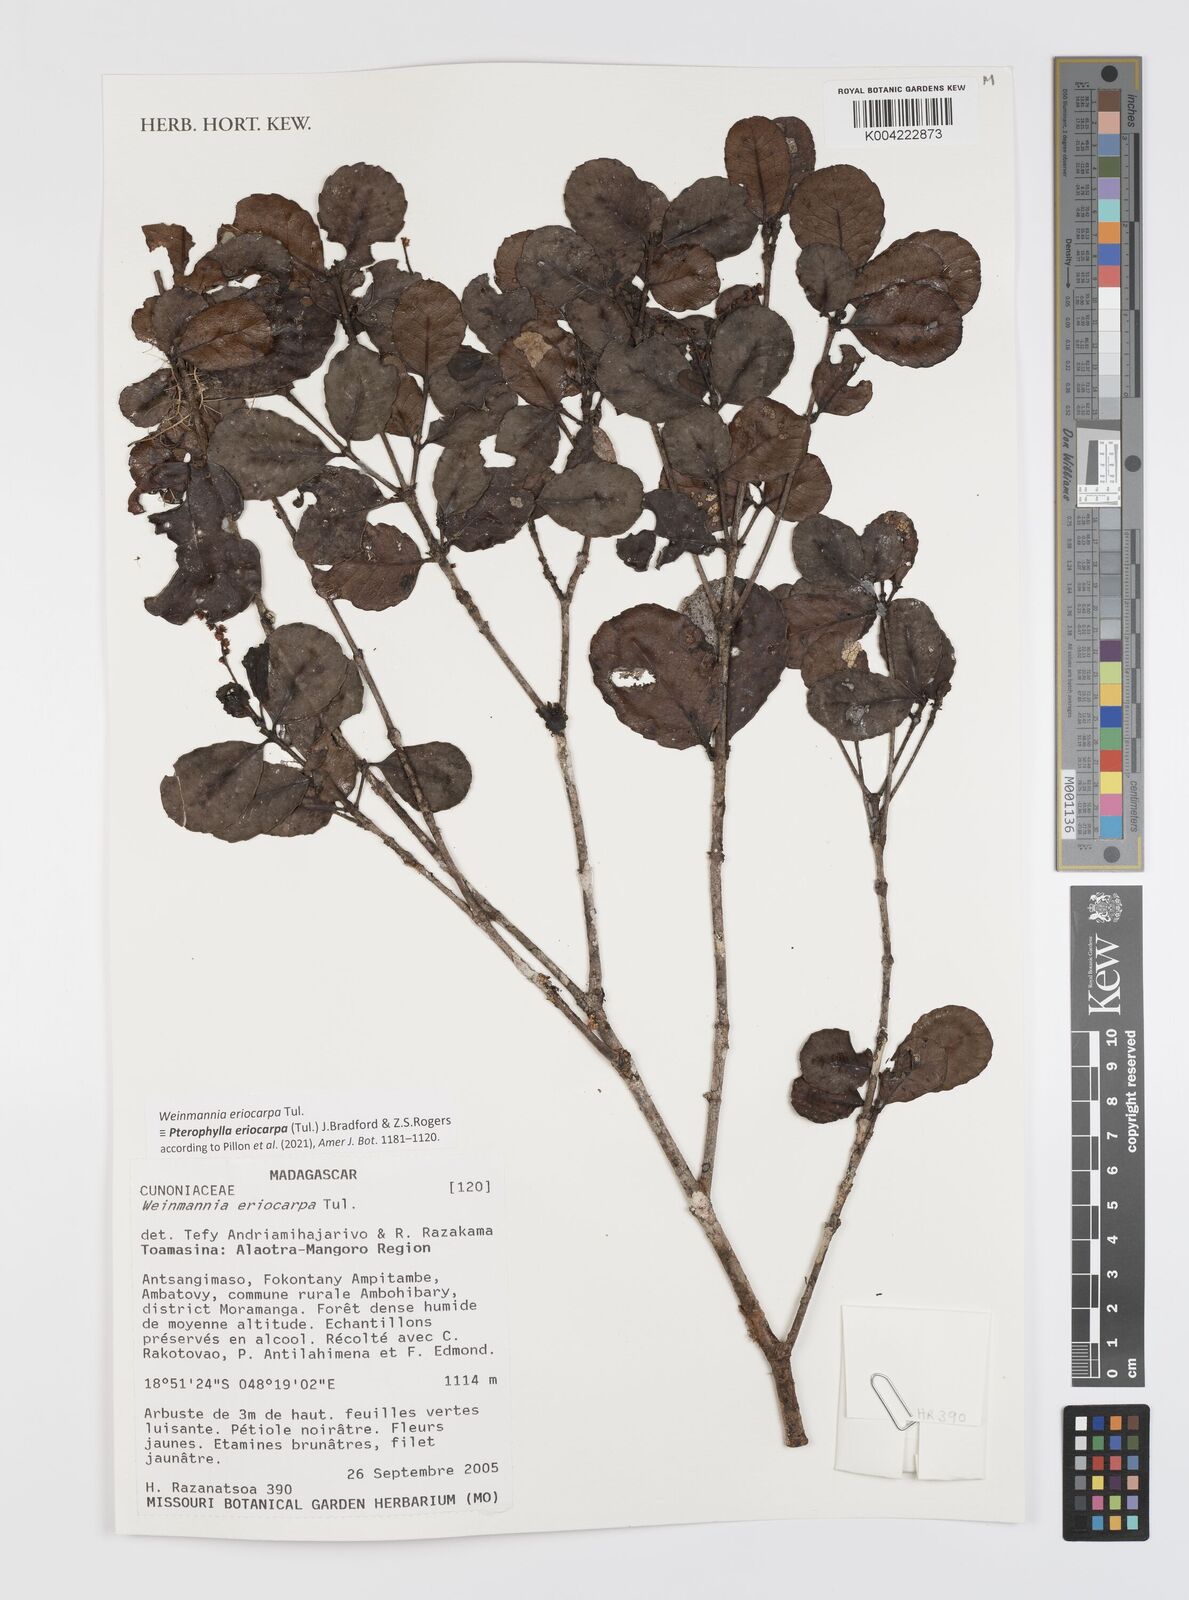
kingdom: Plantae
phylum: Tracheophyta
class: Magnoliopsida
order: Oxalidales
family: Cunoniaceae
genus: Pterophylla
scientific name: Pterophylla eriocarpa
